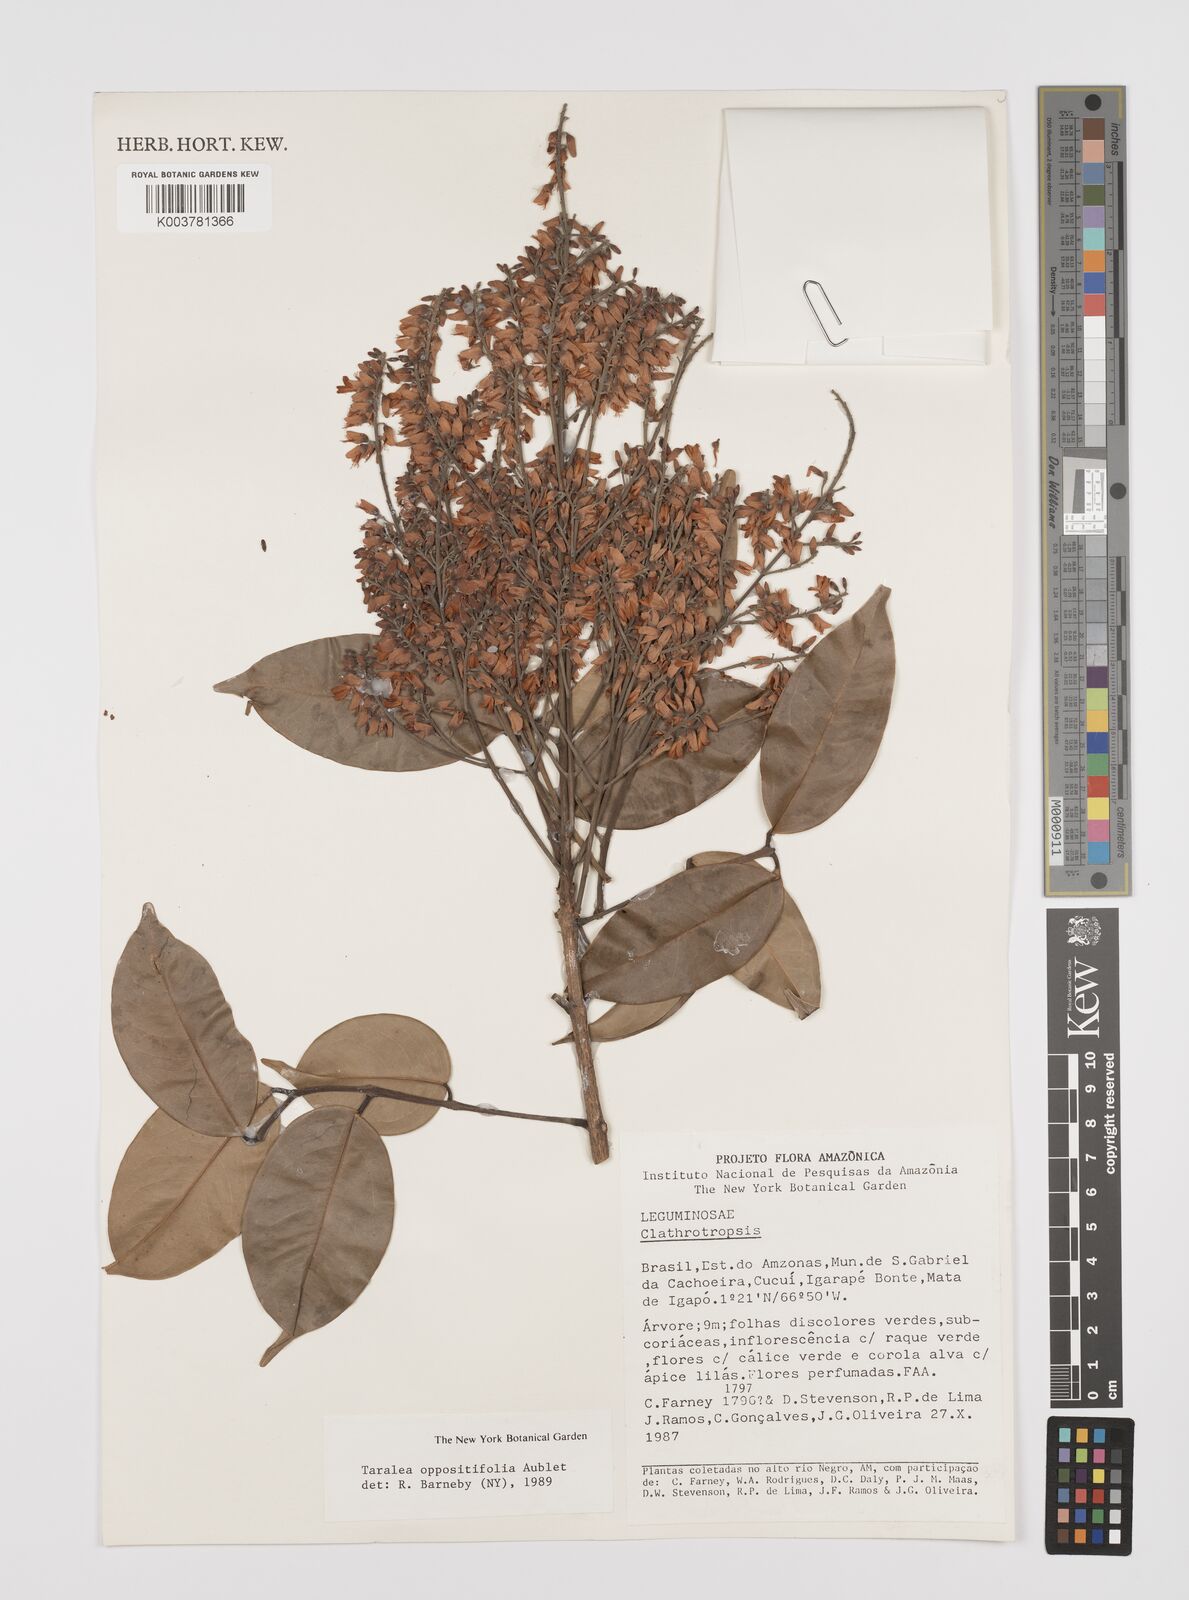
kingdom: Plantae
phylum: Tracheophyta
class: Magnoliopsida
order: Fabales
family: Fabaceae
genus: Taralea
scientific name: Taralea oppositifolia
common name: Tonka
